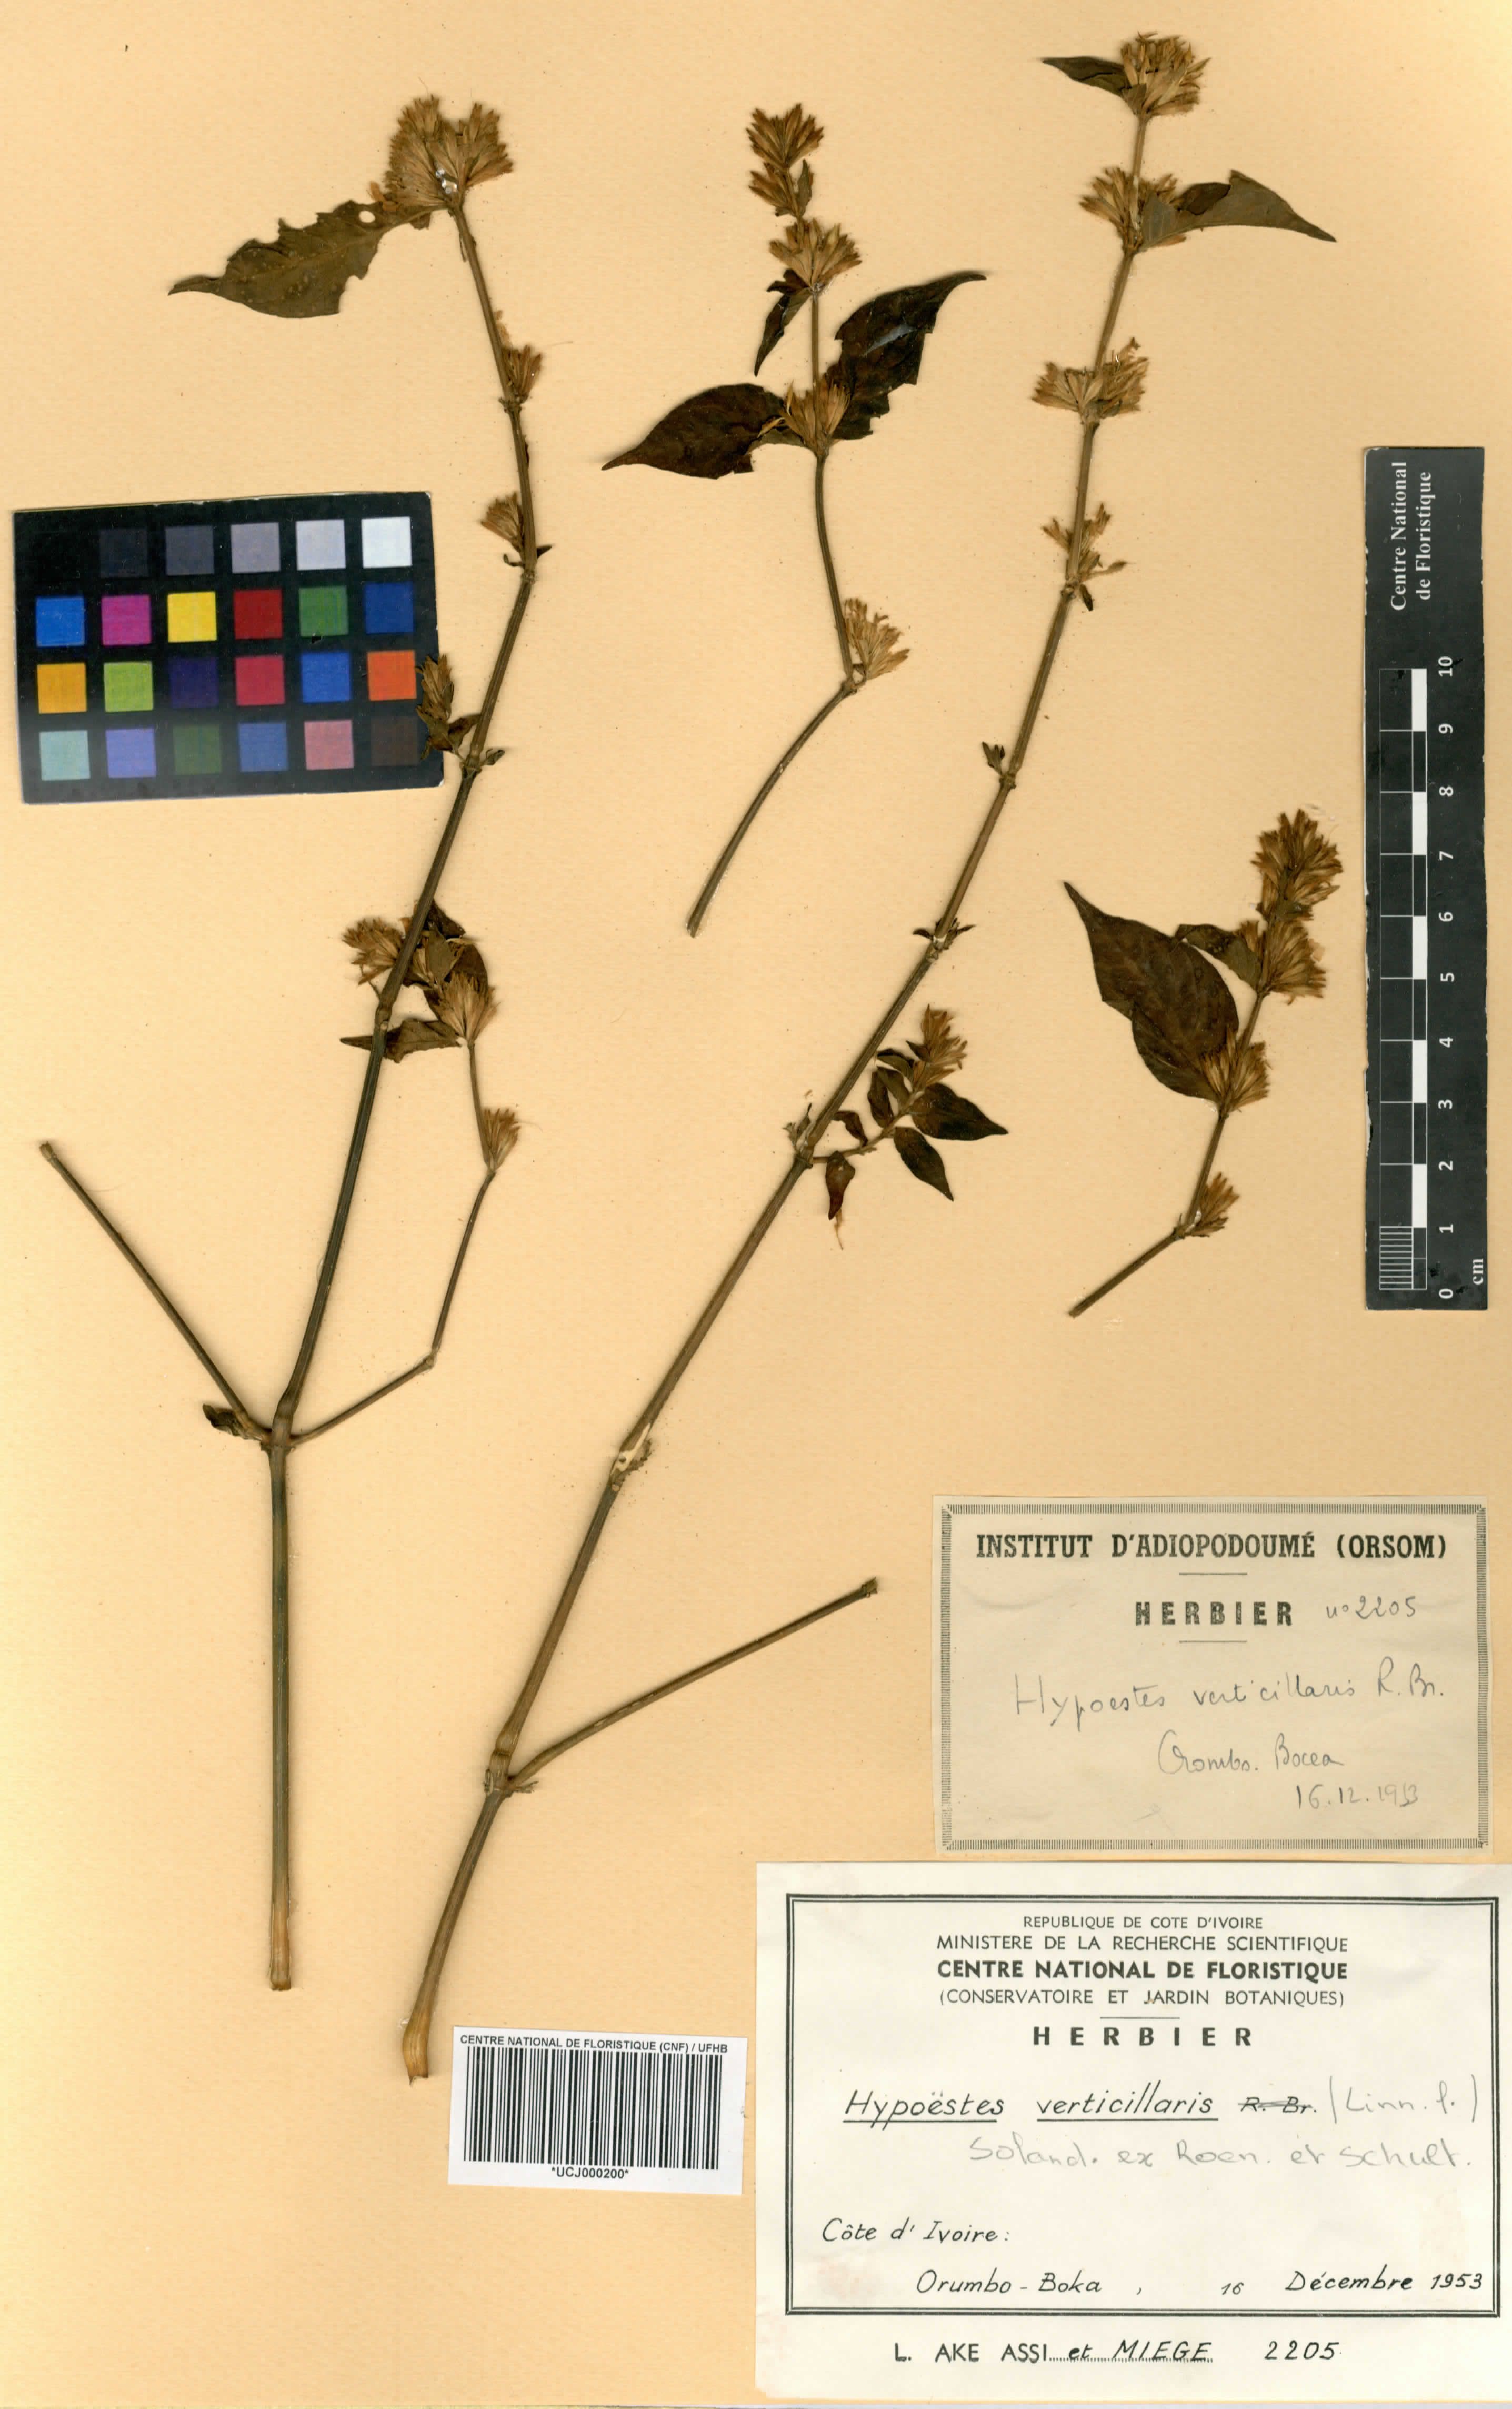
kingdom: Plantae
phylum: Tracheophyta
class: Magnoliopsida
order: Lamiales
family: Acanthaceae
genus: Hypoestes
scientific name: Hypoestes aristata
